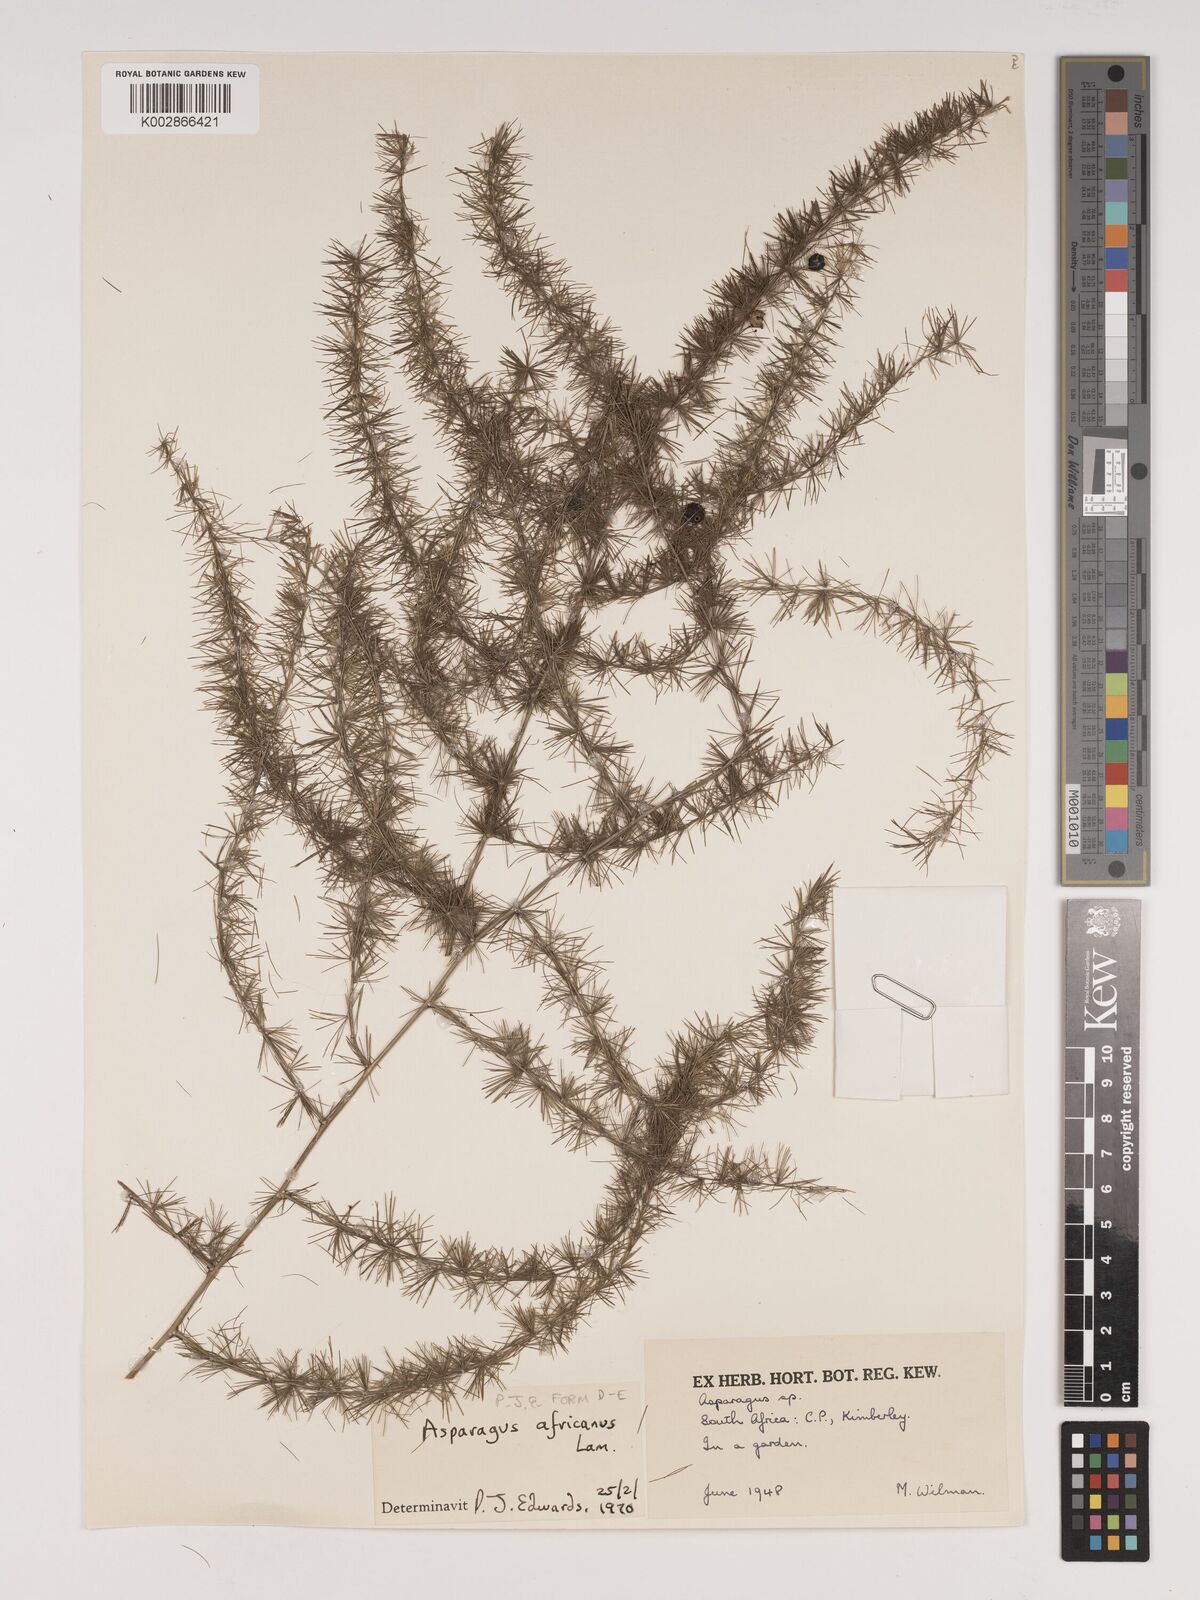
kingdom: Plantae
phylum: Tracheophyta
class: Liliopsida
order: Asparagales
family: Asparagaceae
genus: Asparagus
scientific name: Asparagus africanus
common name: Asparagus-fern
